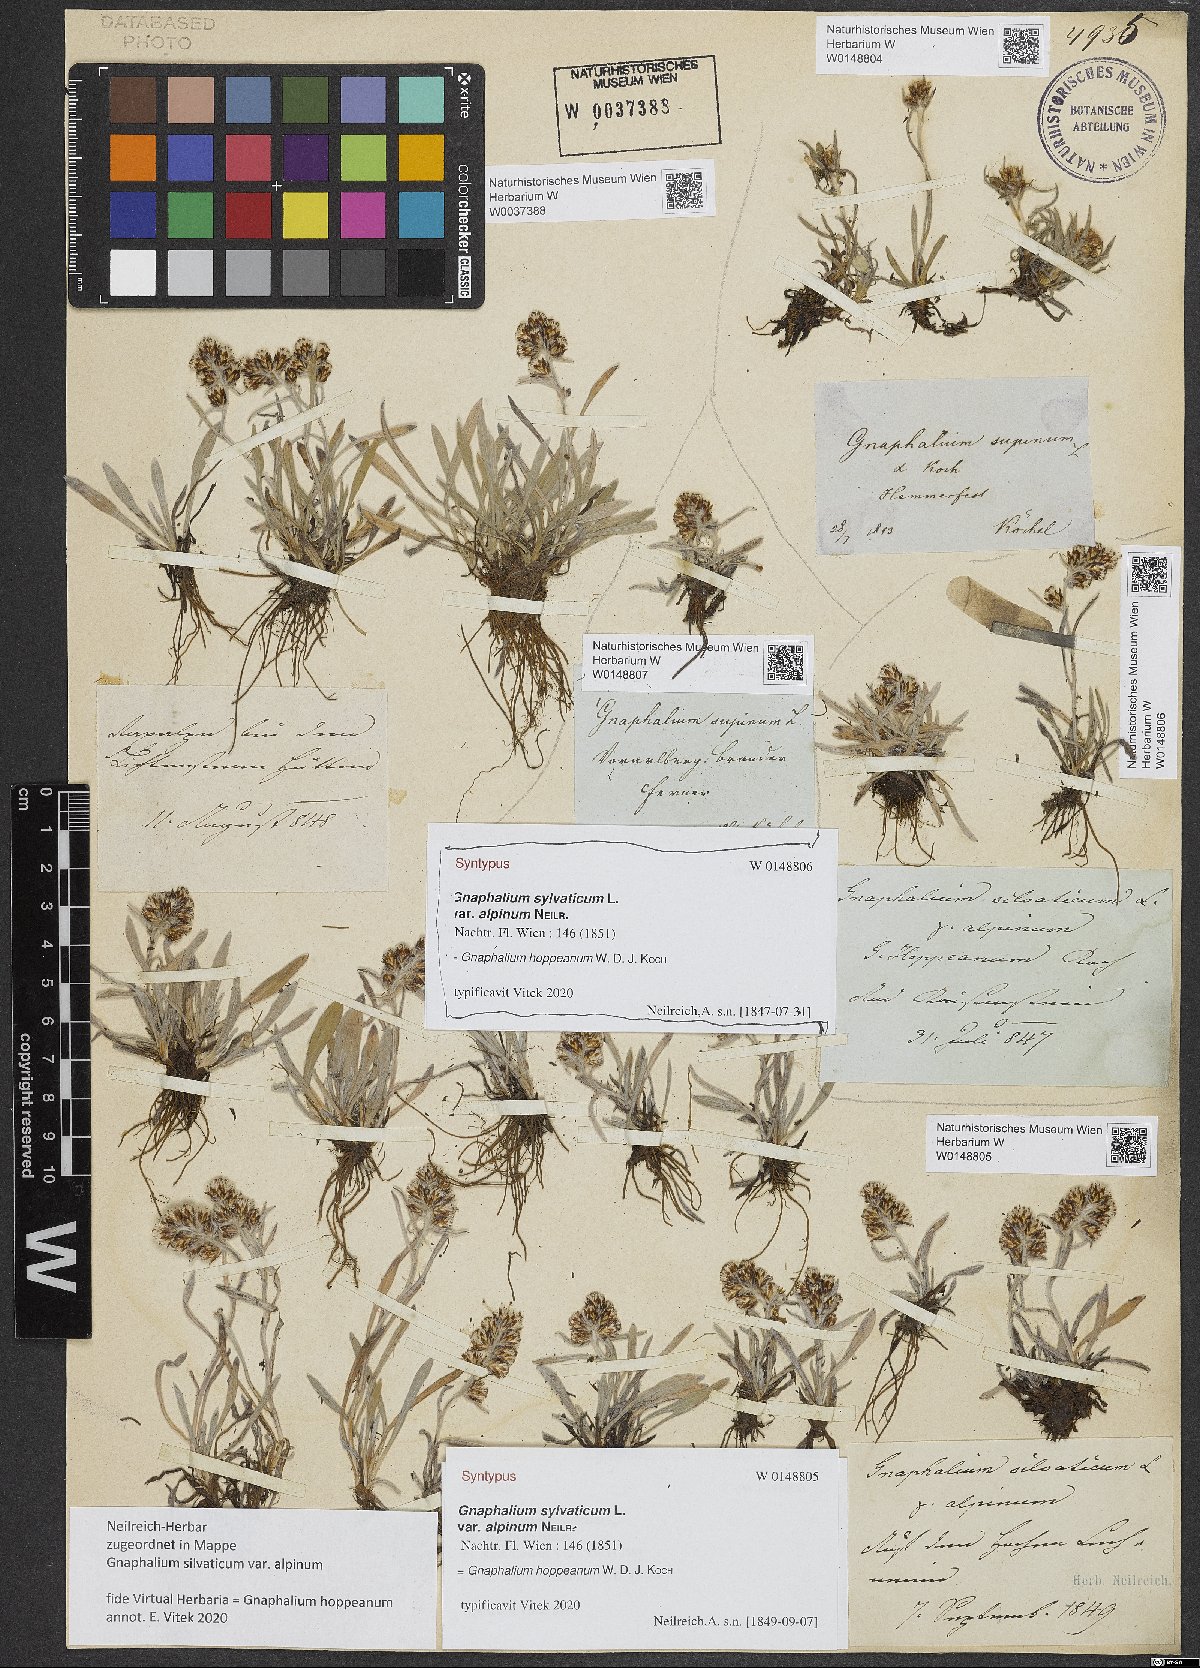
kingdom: Plantae
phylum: Tracheophyta
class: Magnoliopsida
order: Asterales
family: Asteraceae
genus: Omalotheca
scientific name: Omalotheca hoppeana
